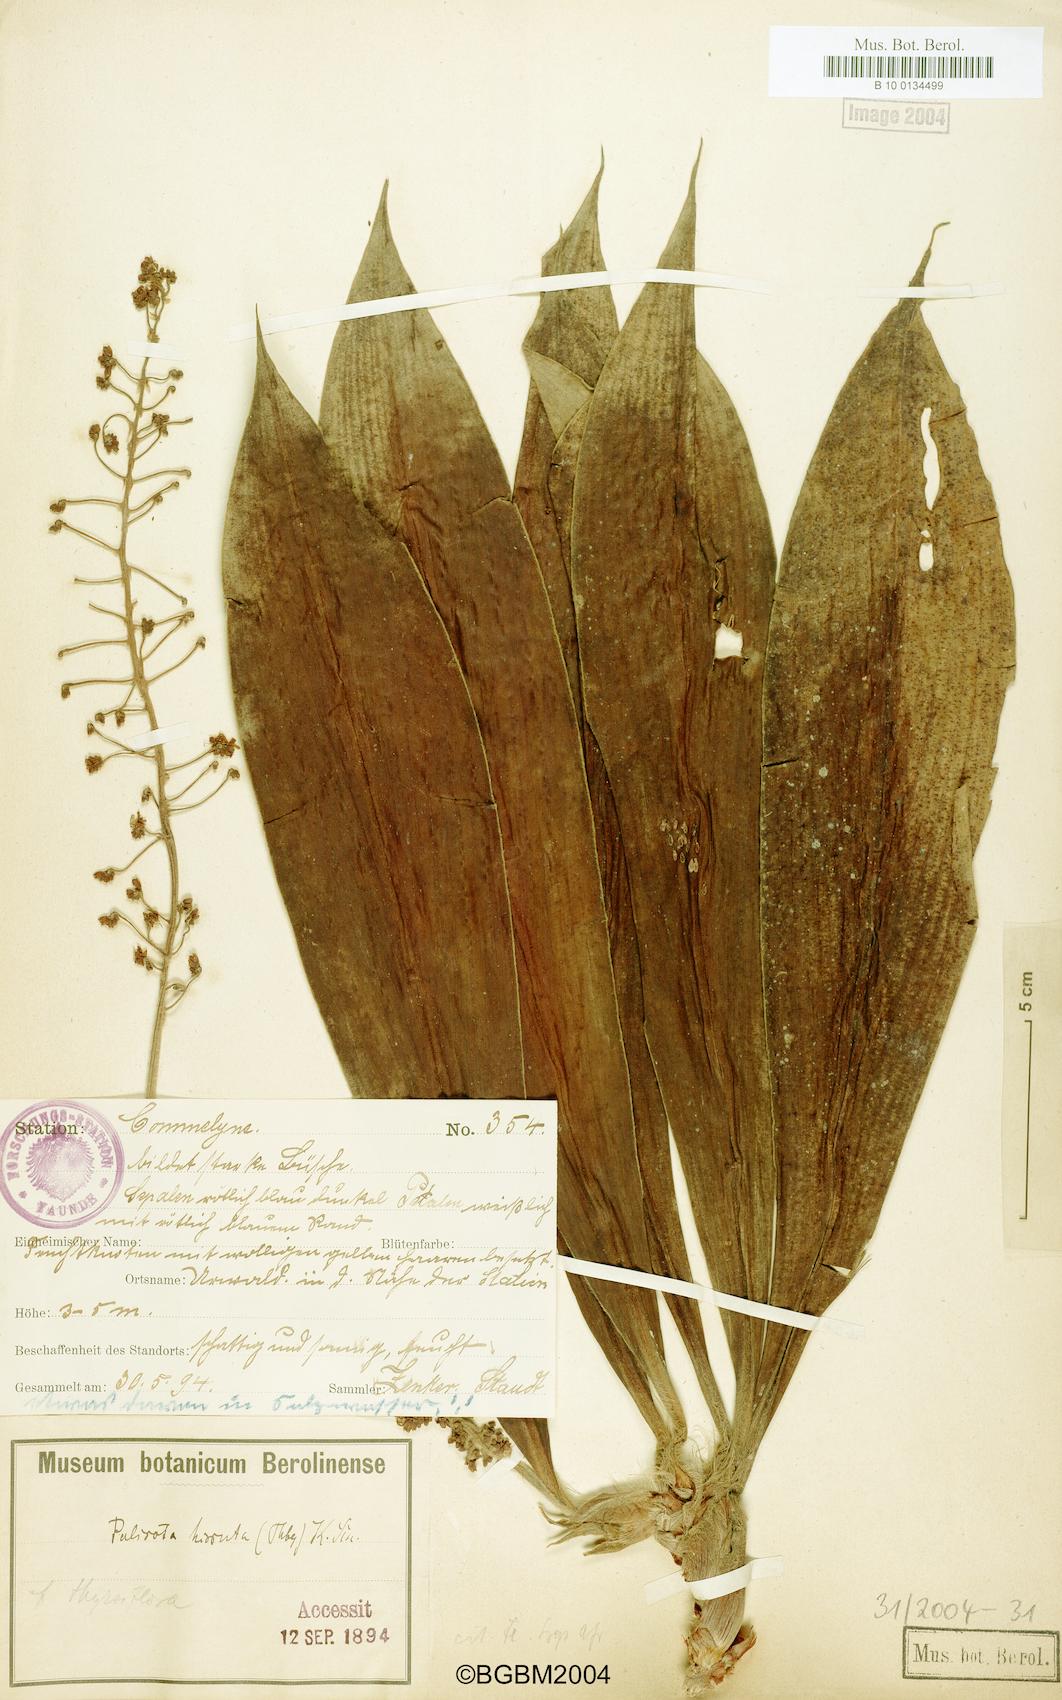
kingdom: Plantae
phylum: Tracheophyta
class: Liliopsida
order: Commelinales
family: Commelinaceae
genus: Palisota
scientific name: Palisota hirsuta
